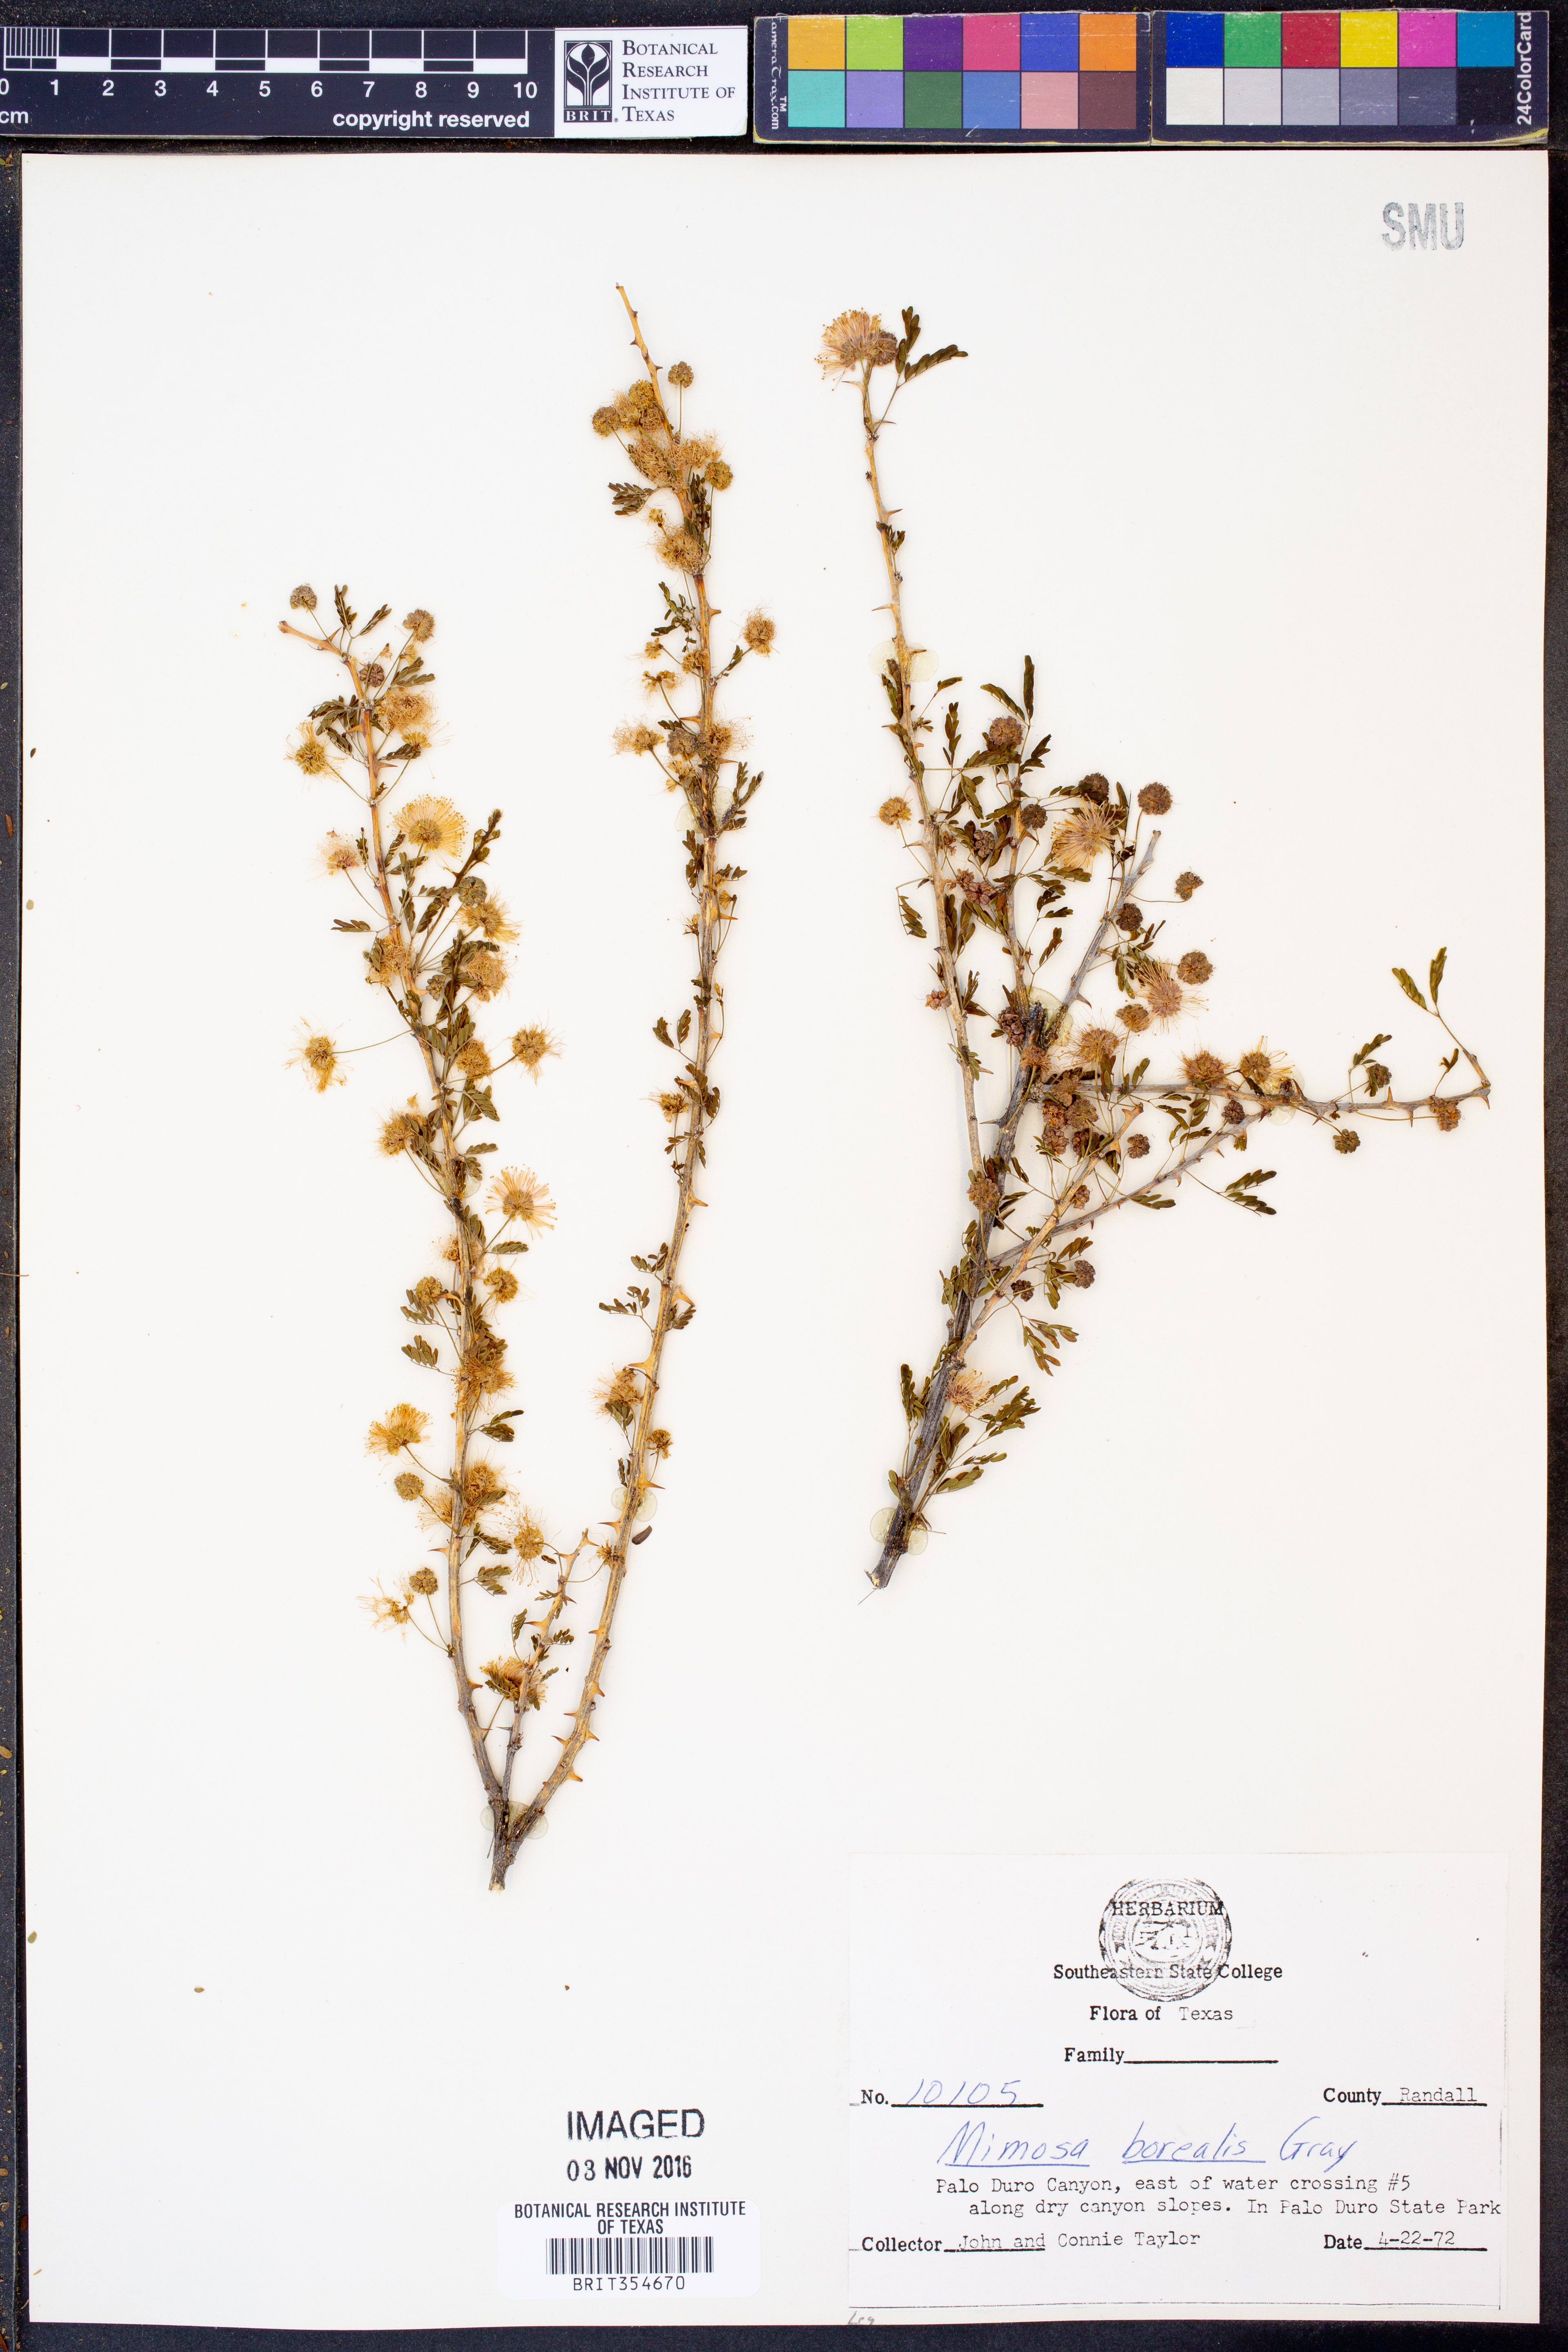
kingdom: Plantae
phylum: Tracheophyta
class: Magnoliopsida
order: Fabales
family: Fabaceae
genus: Mimosa
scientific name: Mimosa borealis
